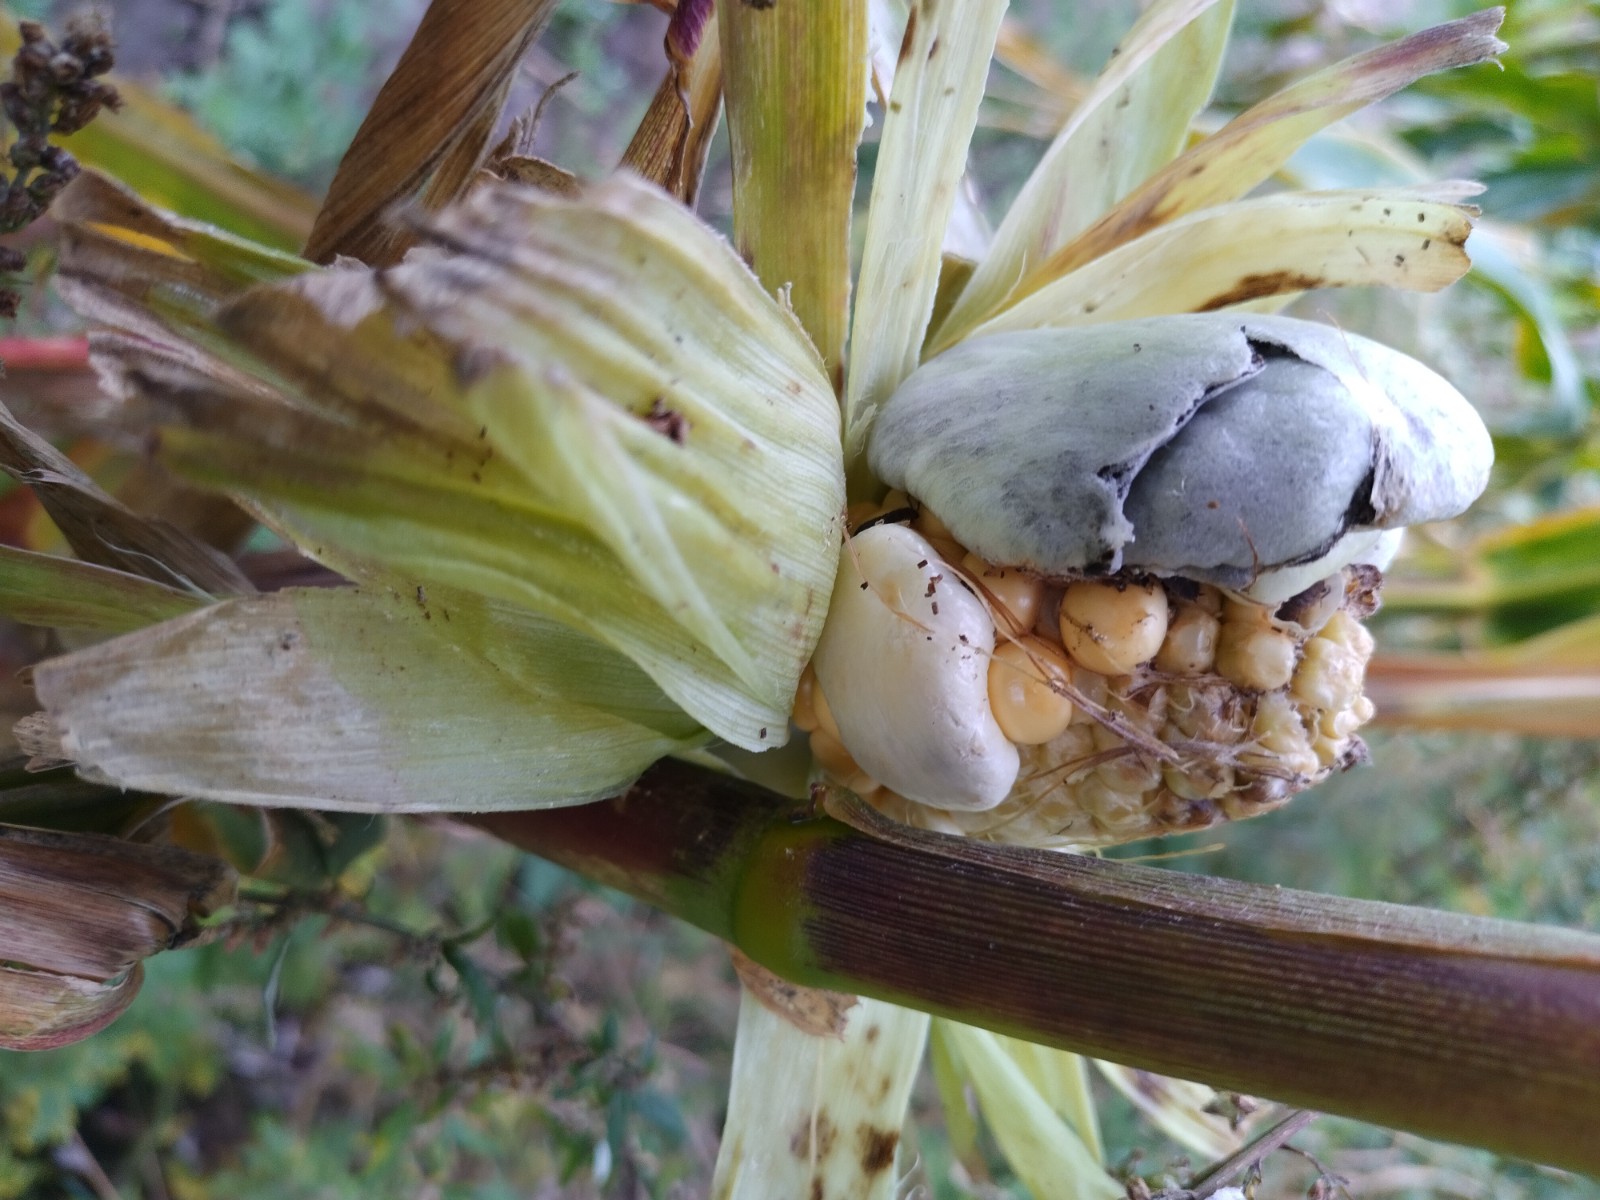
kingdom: Fungi
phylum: Basidiomycota
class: Ustilaginomycetes
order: Ustilaginales
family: Ustilaginaceae
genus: Mycosarcoma
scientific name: Mycosarcoma maydis
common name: majs-brand
